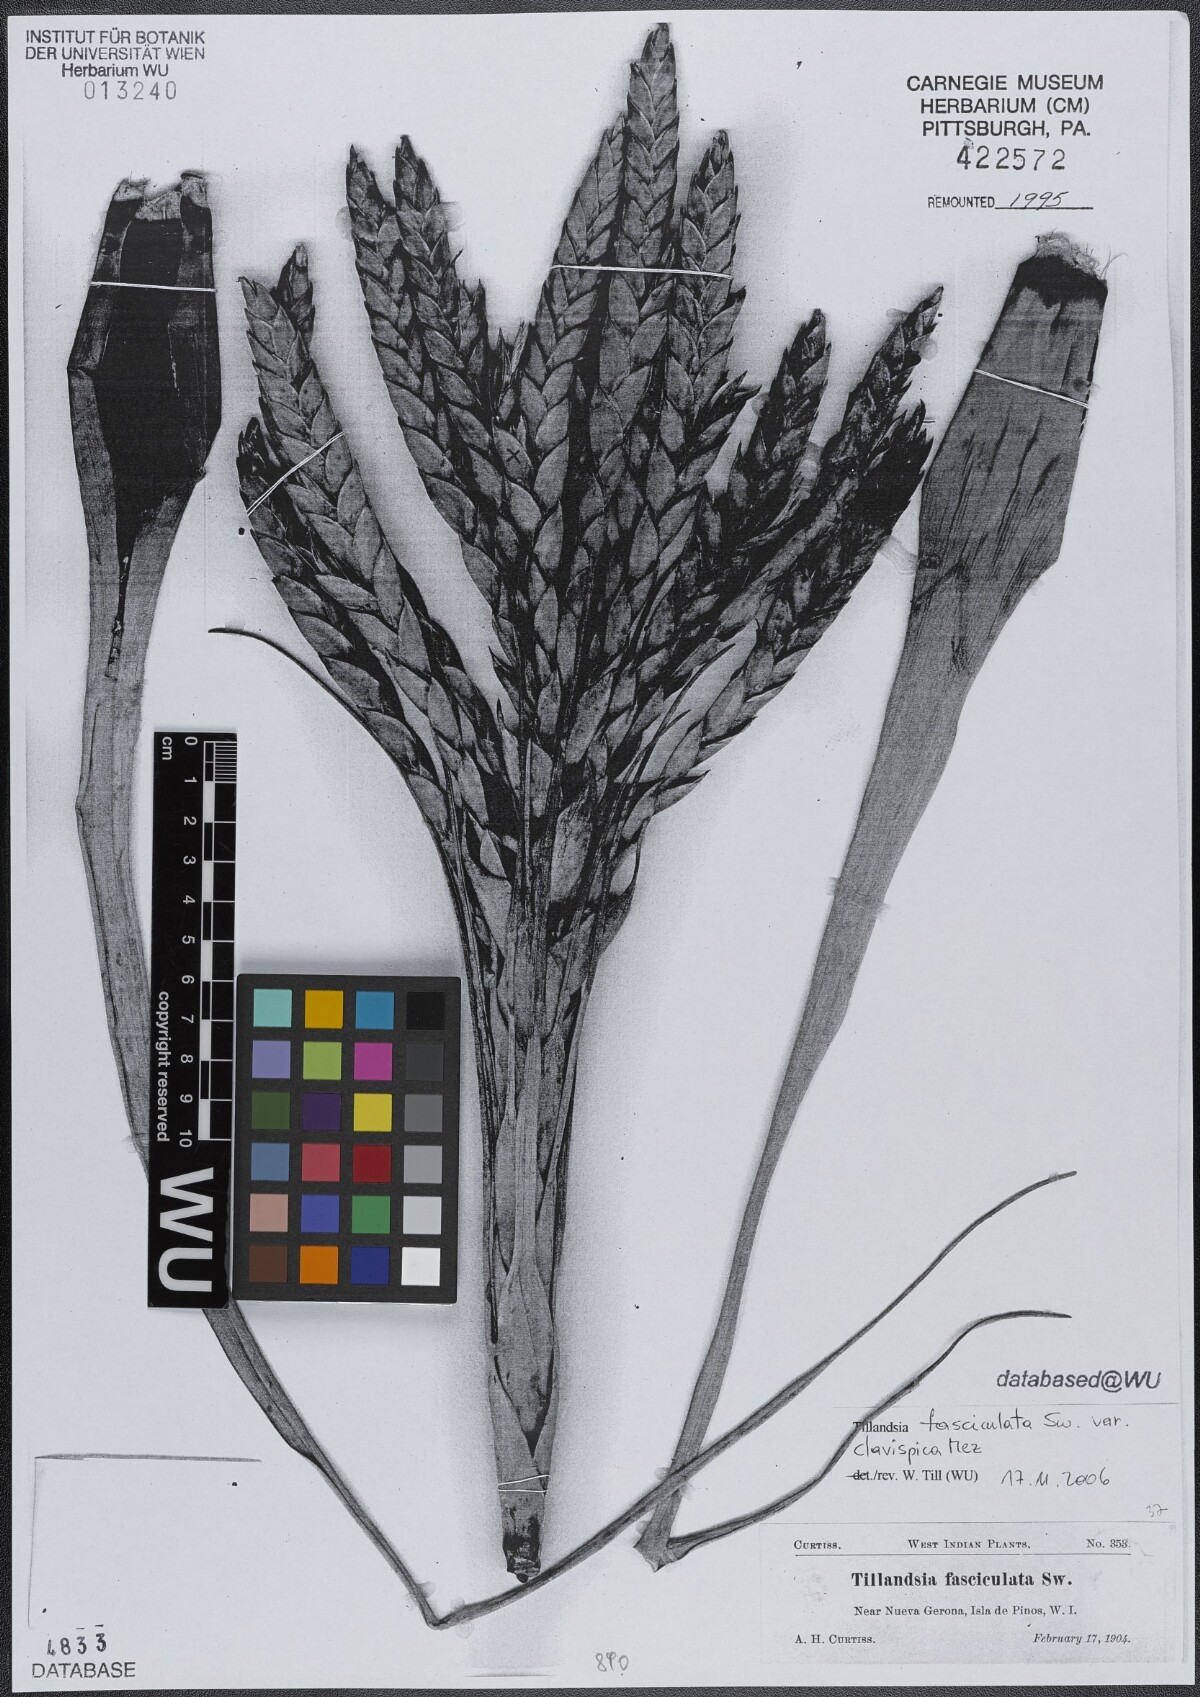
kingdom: Plantae
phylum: Tracheophyta
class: Liliopsida
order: Poales
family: Bromeliaceae
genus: Tillandsia
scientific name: Tillandsia fasciculata
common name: Giant airplant
